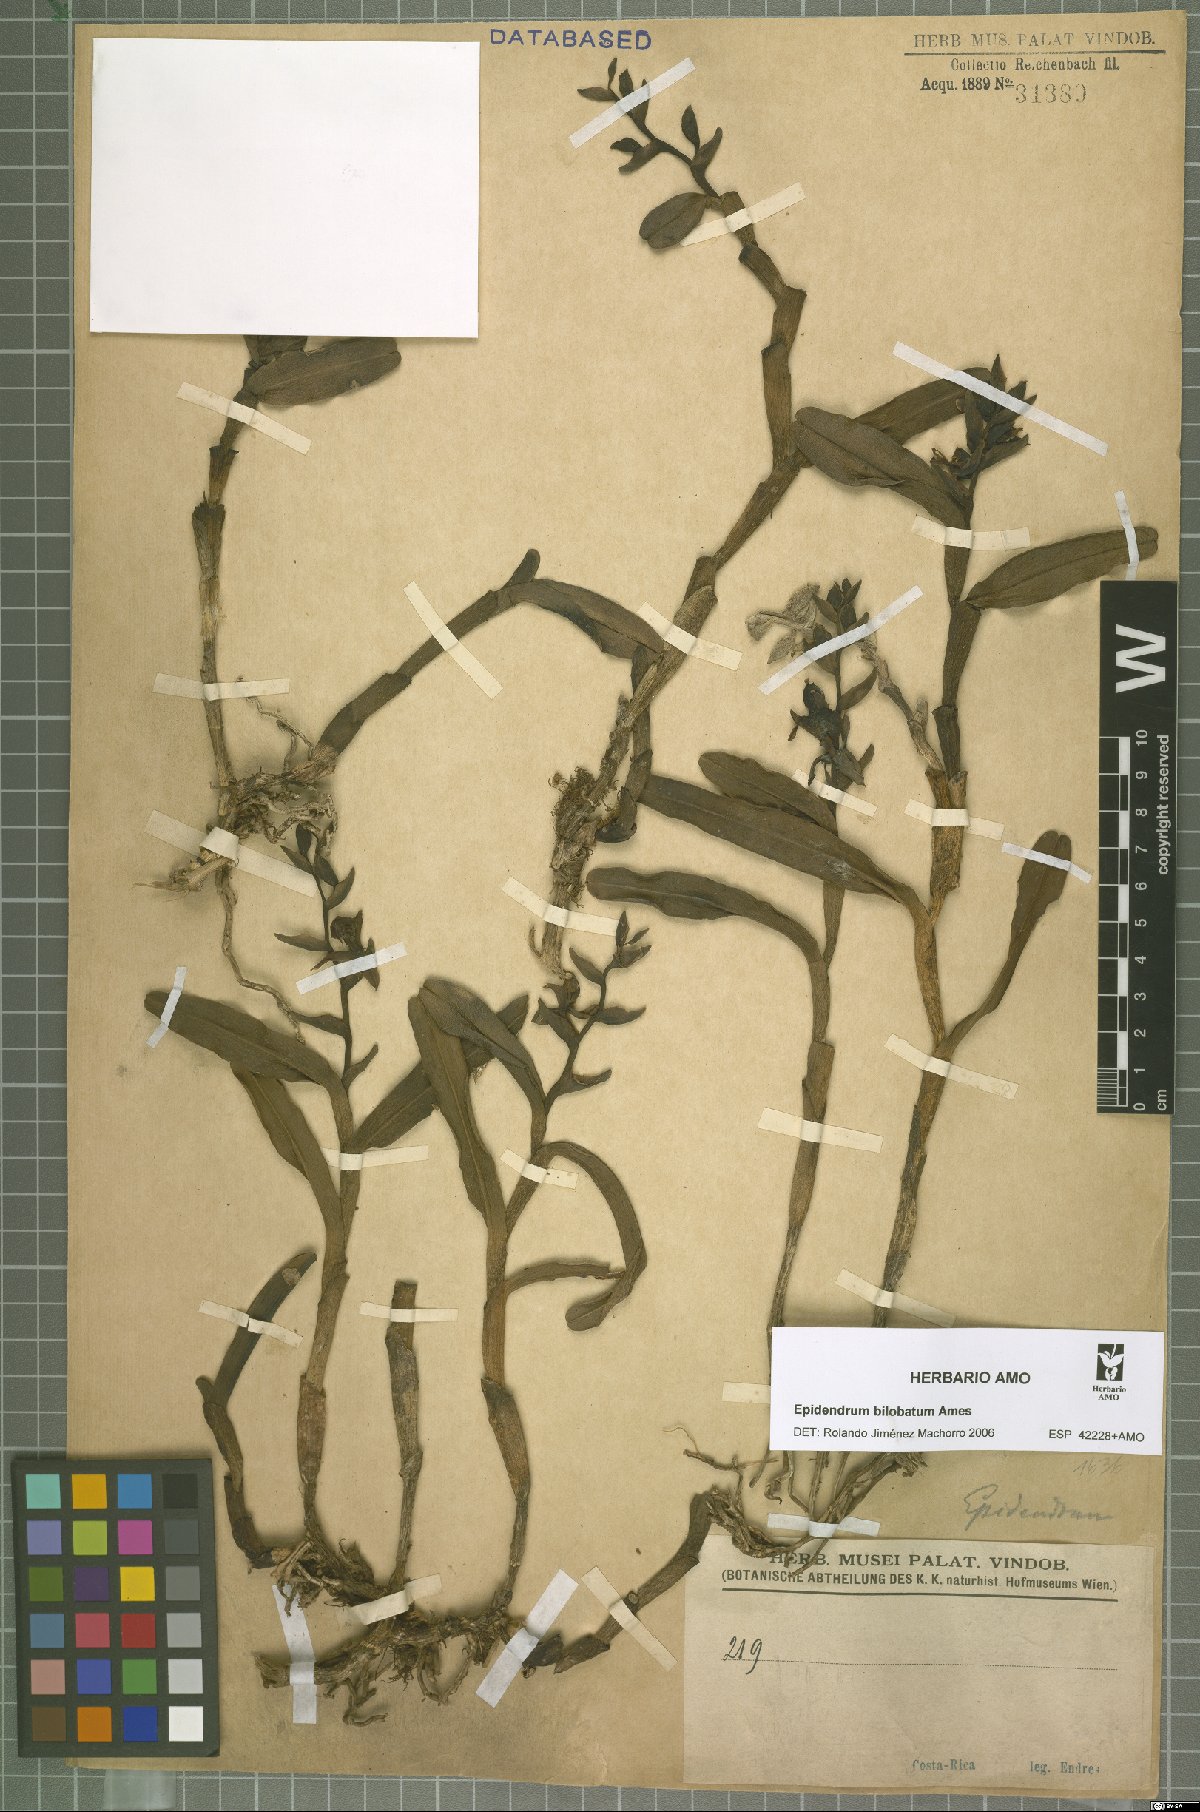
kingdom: Plantae
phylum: Tracheophyta
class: Liliopsida
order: Asparagales
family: Orchidaceae
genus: Epidendrum
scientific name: Epidendrum bilobatum
